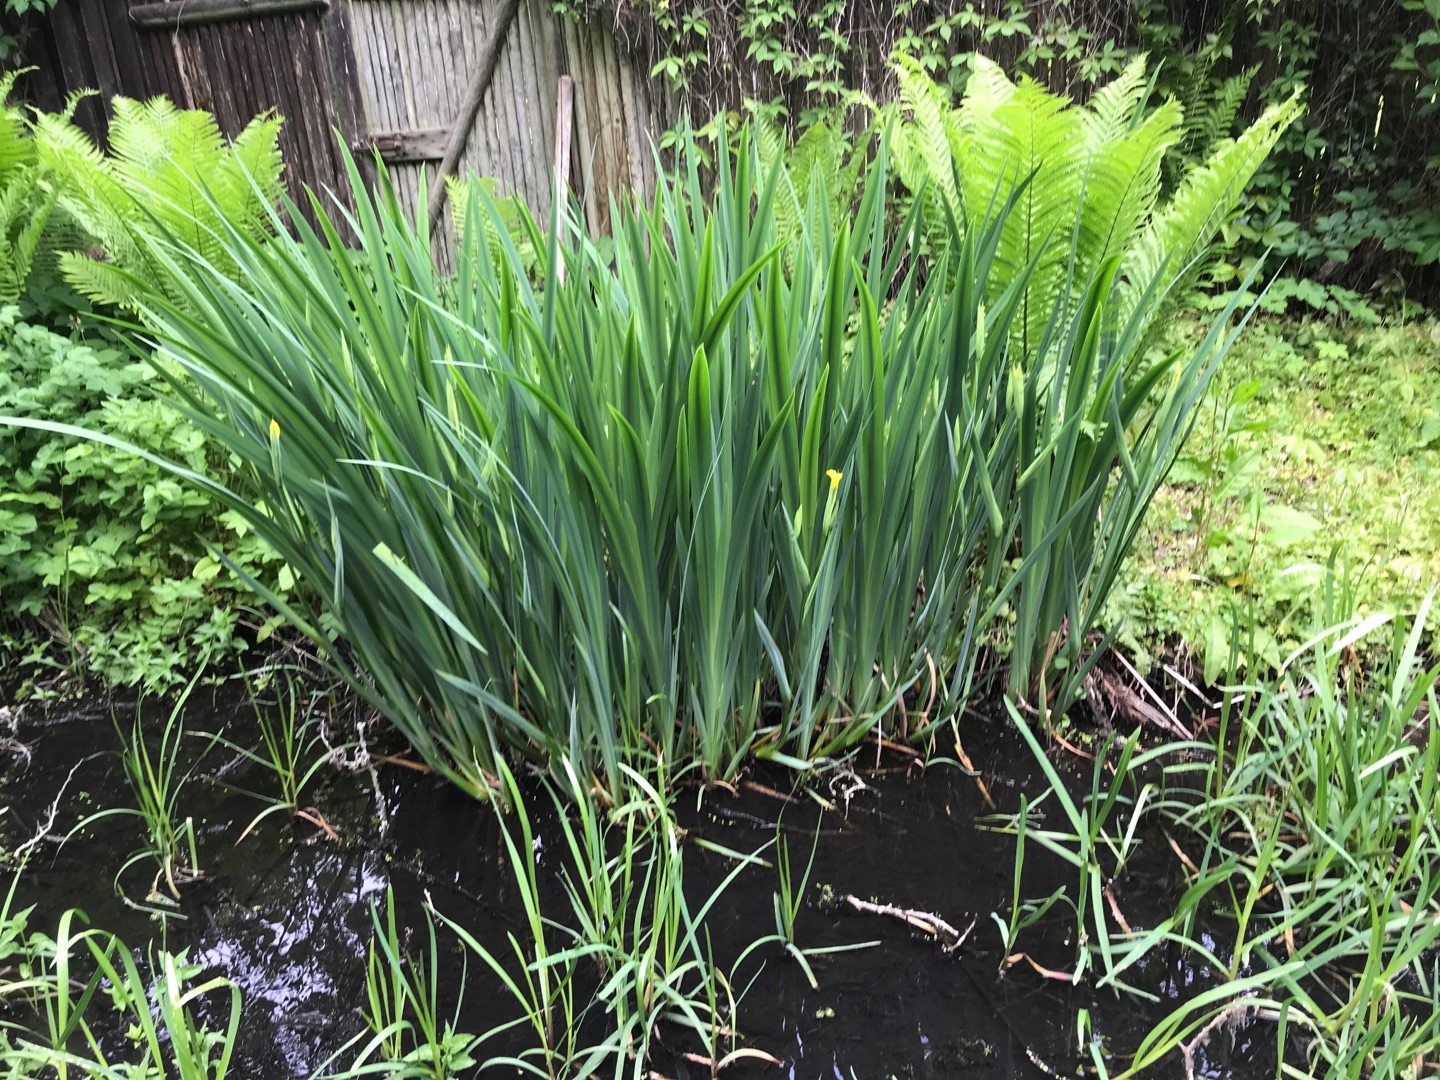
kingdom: Plantae
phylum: Tracheophyta
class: Liliopsida
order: Asparagales
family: Iridaceae
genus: Iris
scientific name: Iris pseudacorus
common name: Gul iris
